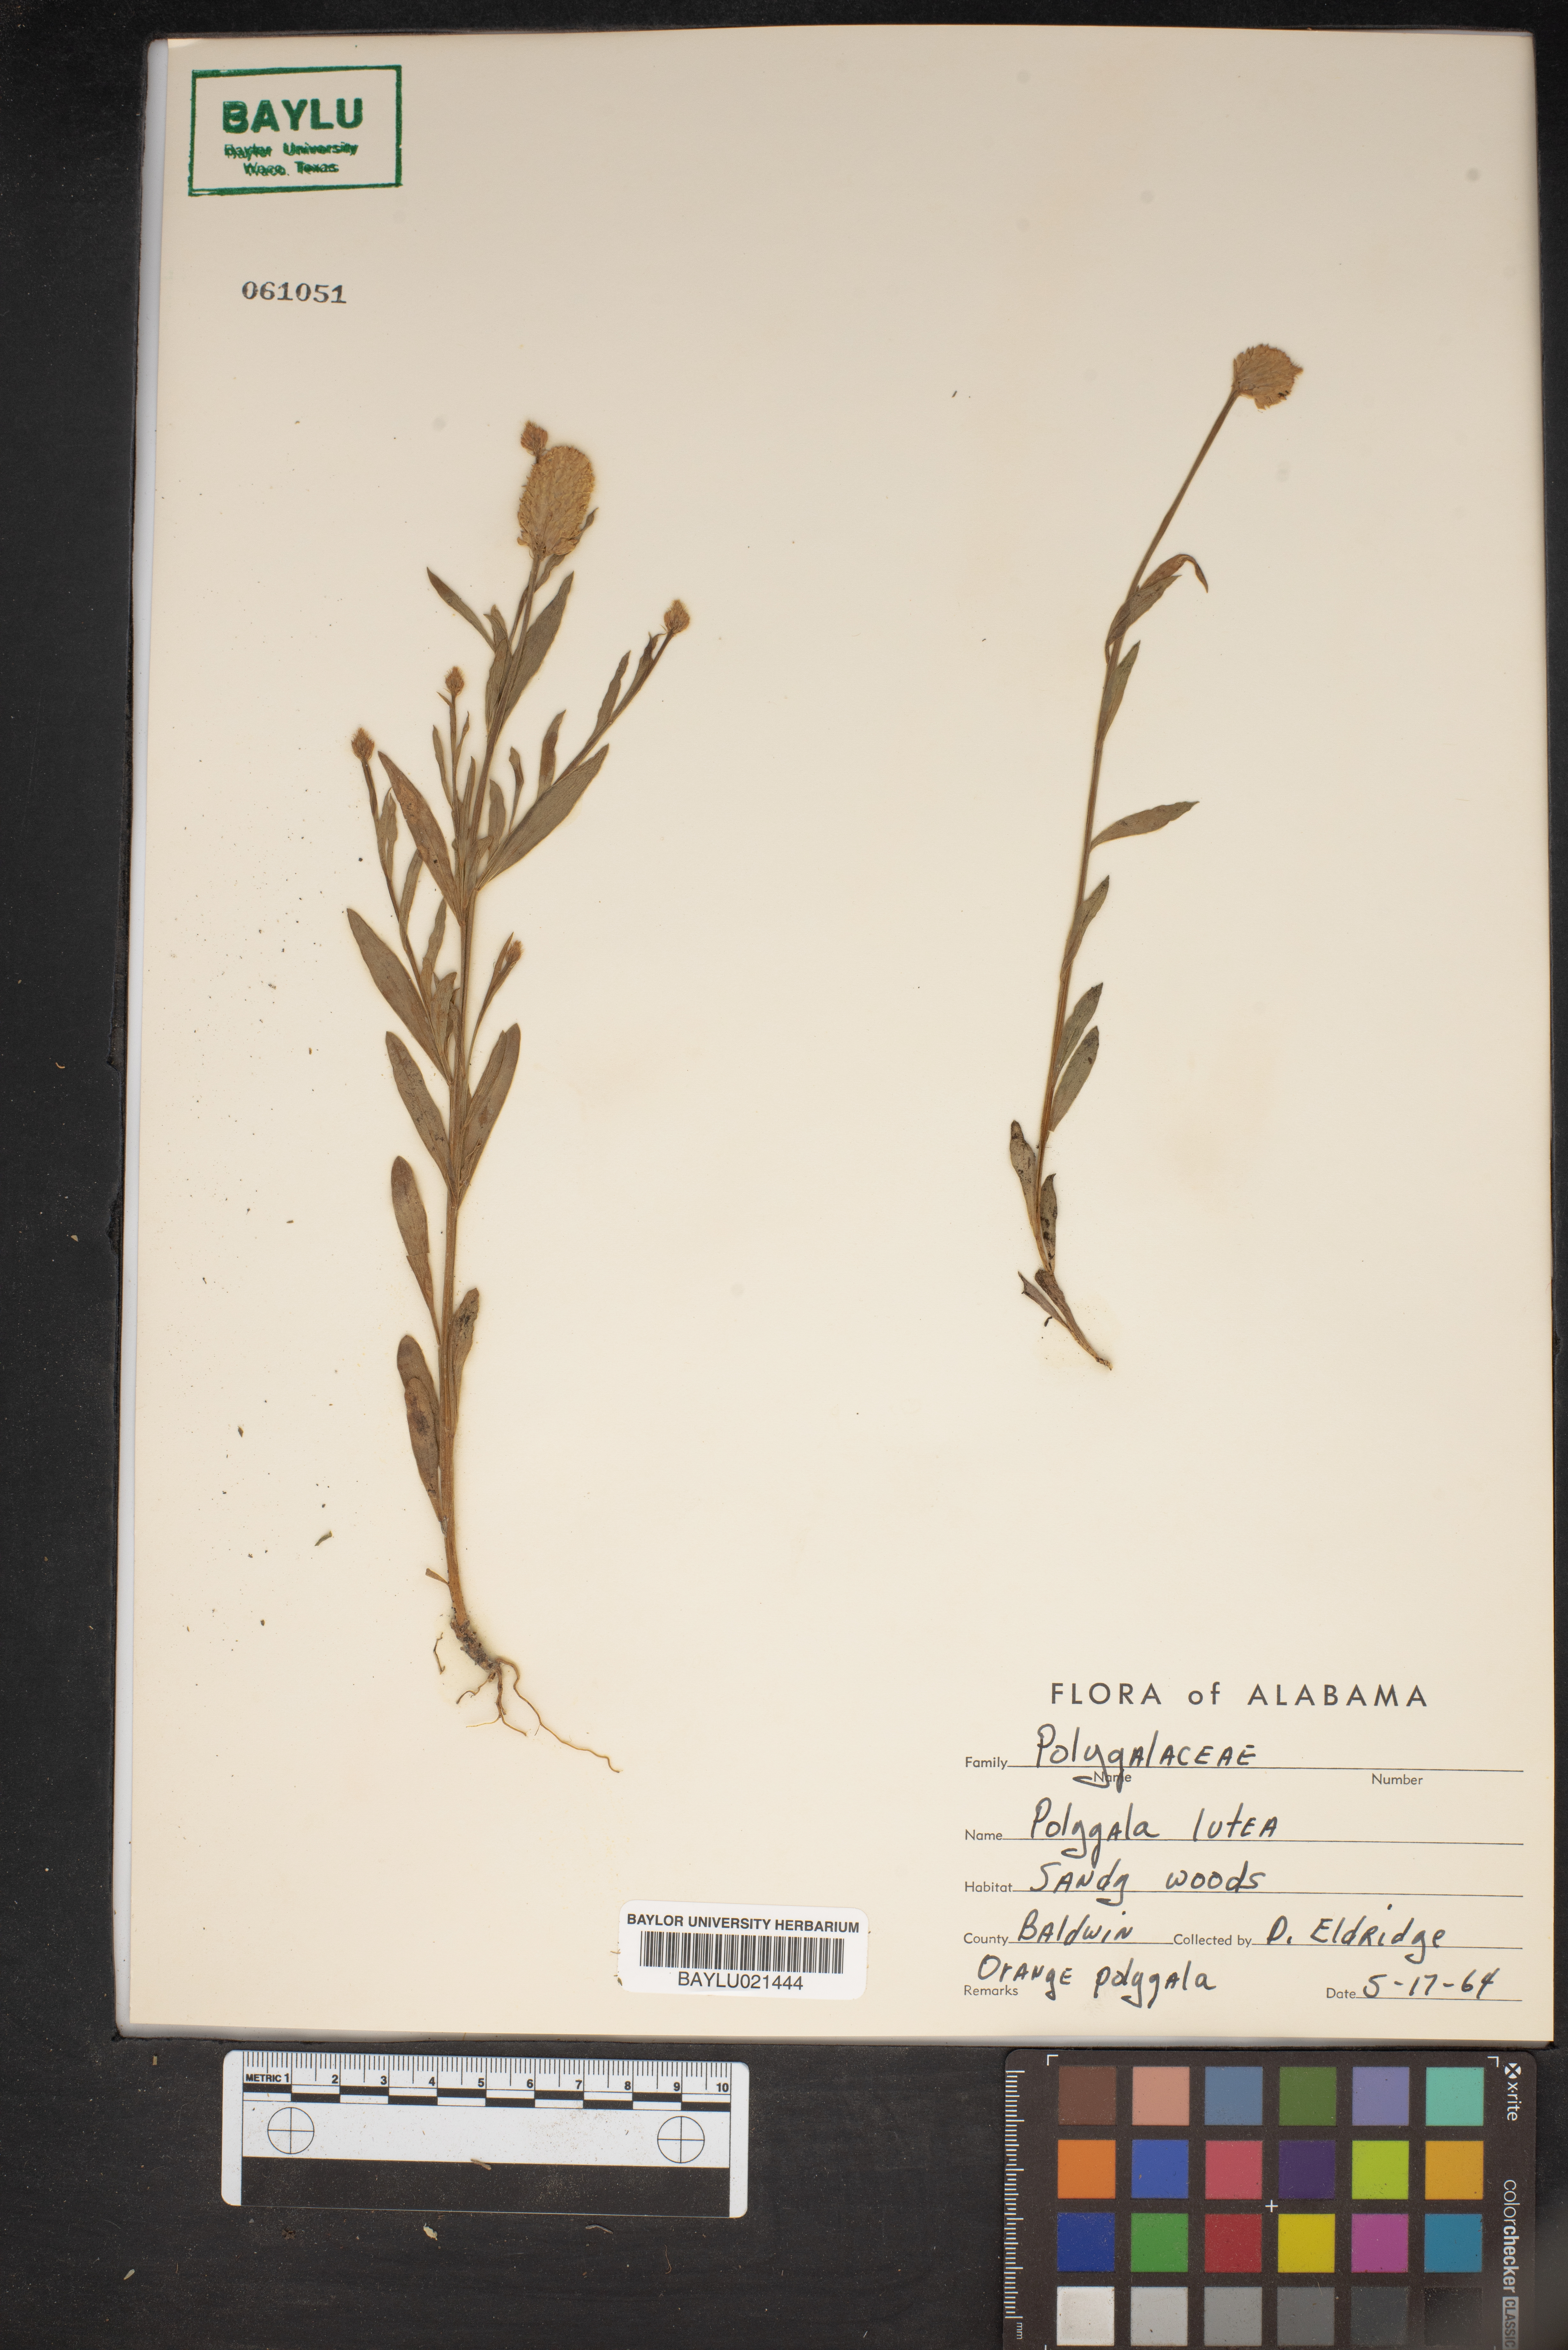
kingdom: Plantae
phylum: Tracheophyta
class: Magnoliopsida
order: Fabales
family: Polygalaceae
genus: Polygala
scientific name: Polygala lutea
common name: Orange milkwort
